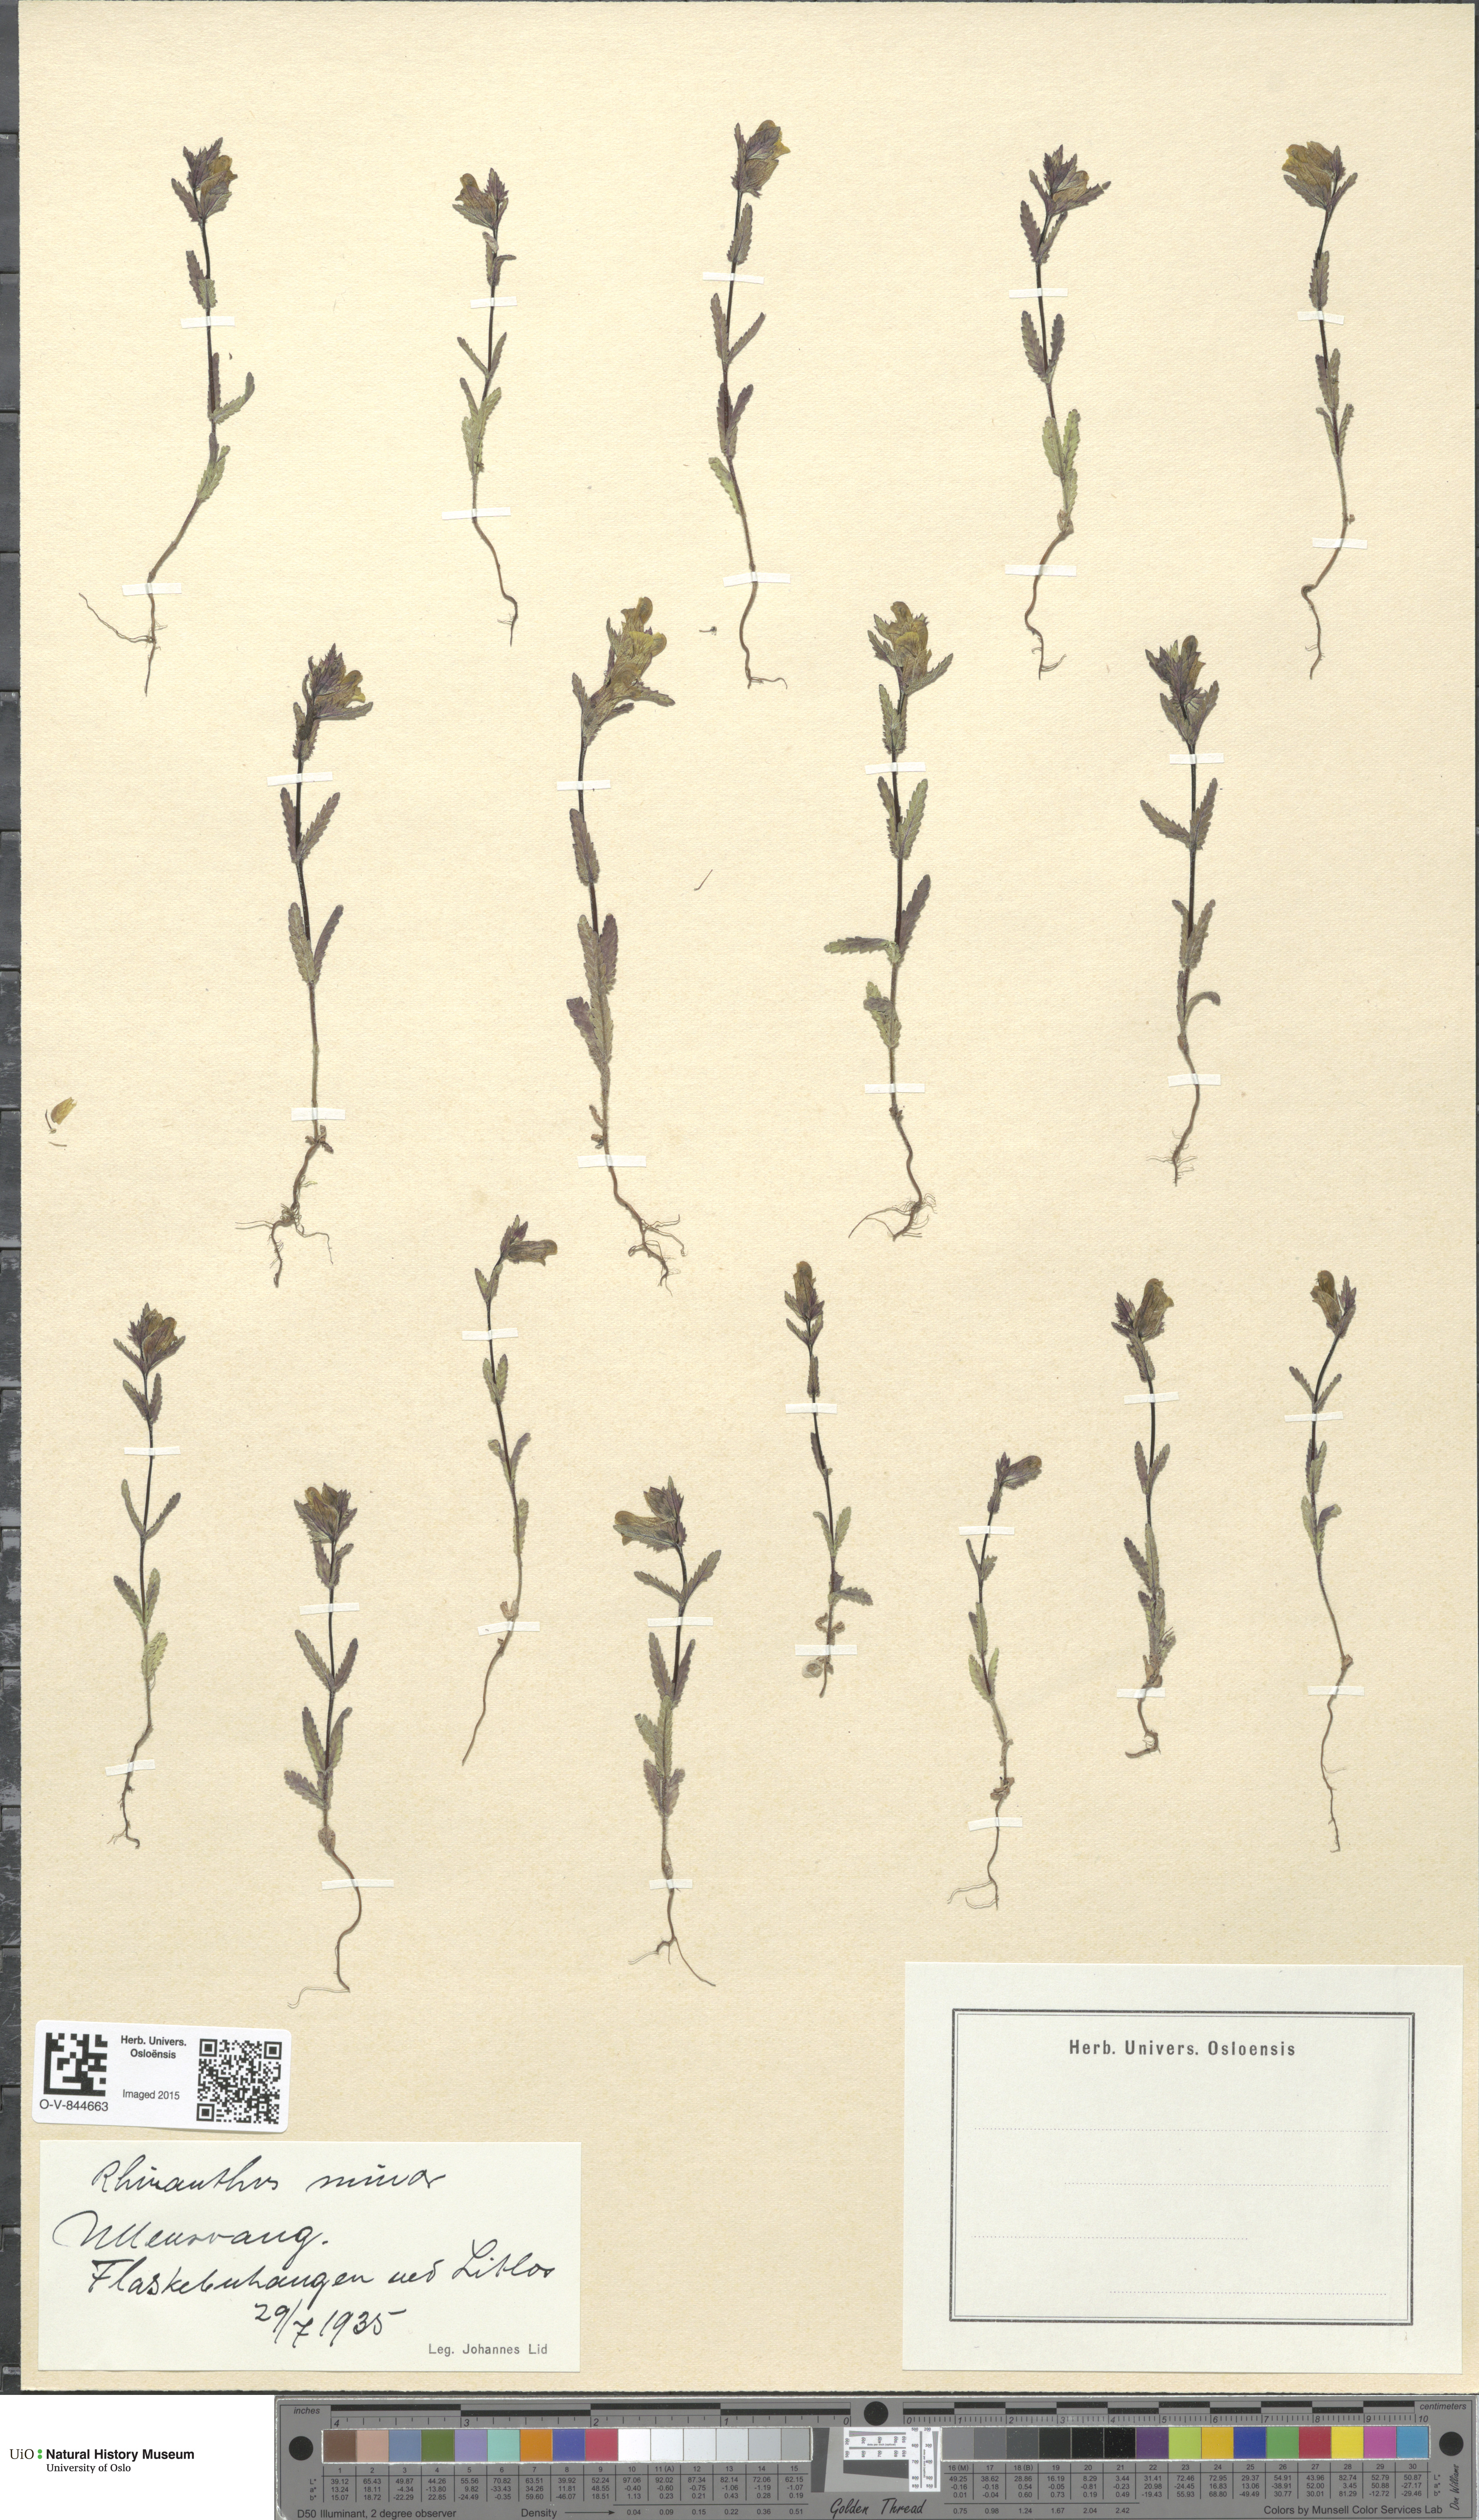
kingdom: Plantae
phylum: Tracheophyta
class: Magnoliopsida
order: Lamiales
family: Orobanchaceae
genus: Rhinanthus
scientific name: Rhinanthus minor
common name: Yellow-rattle
